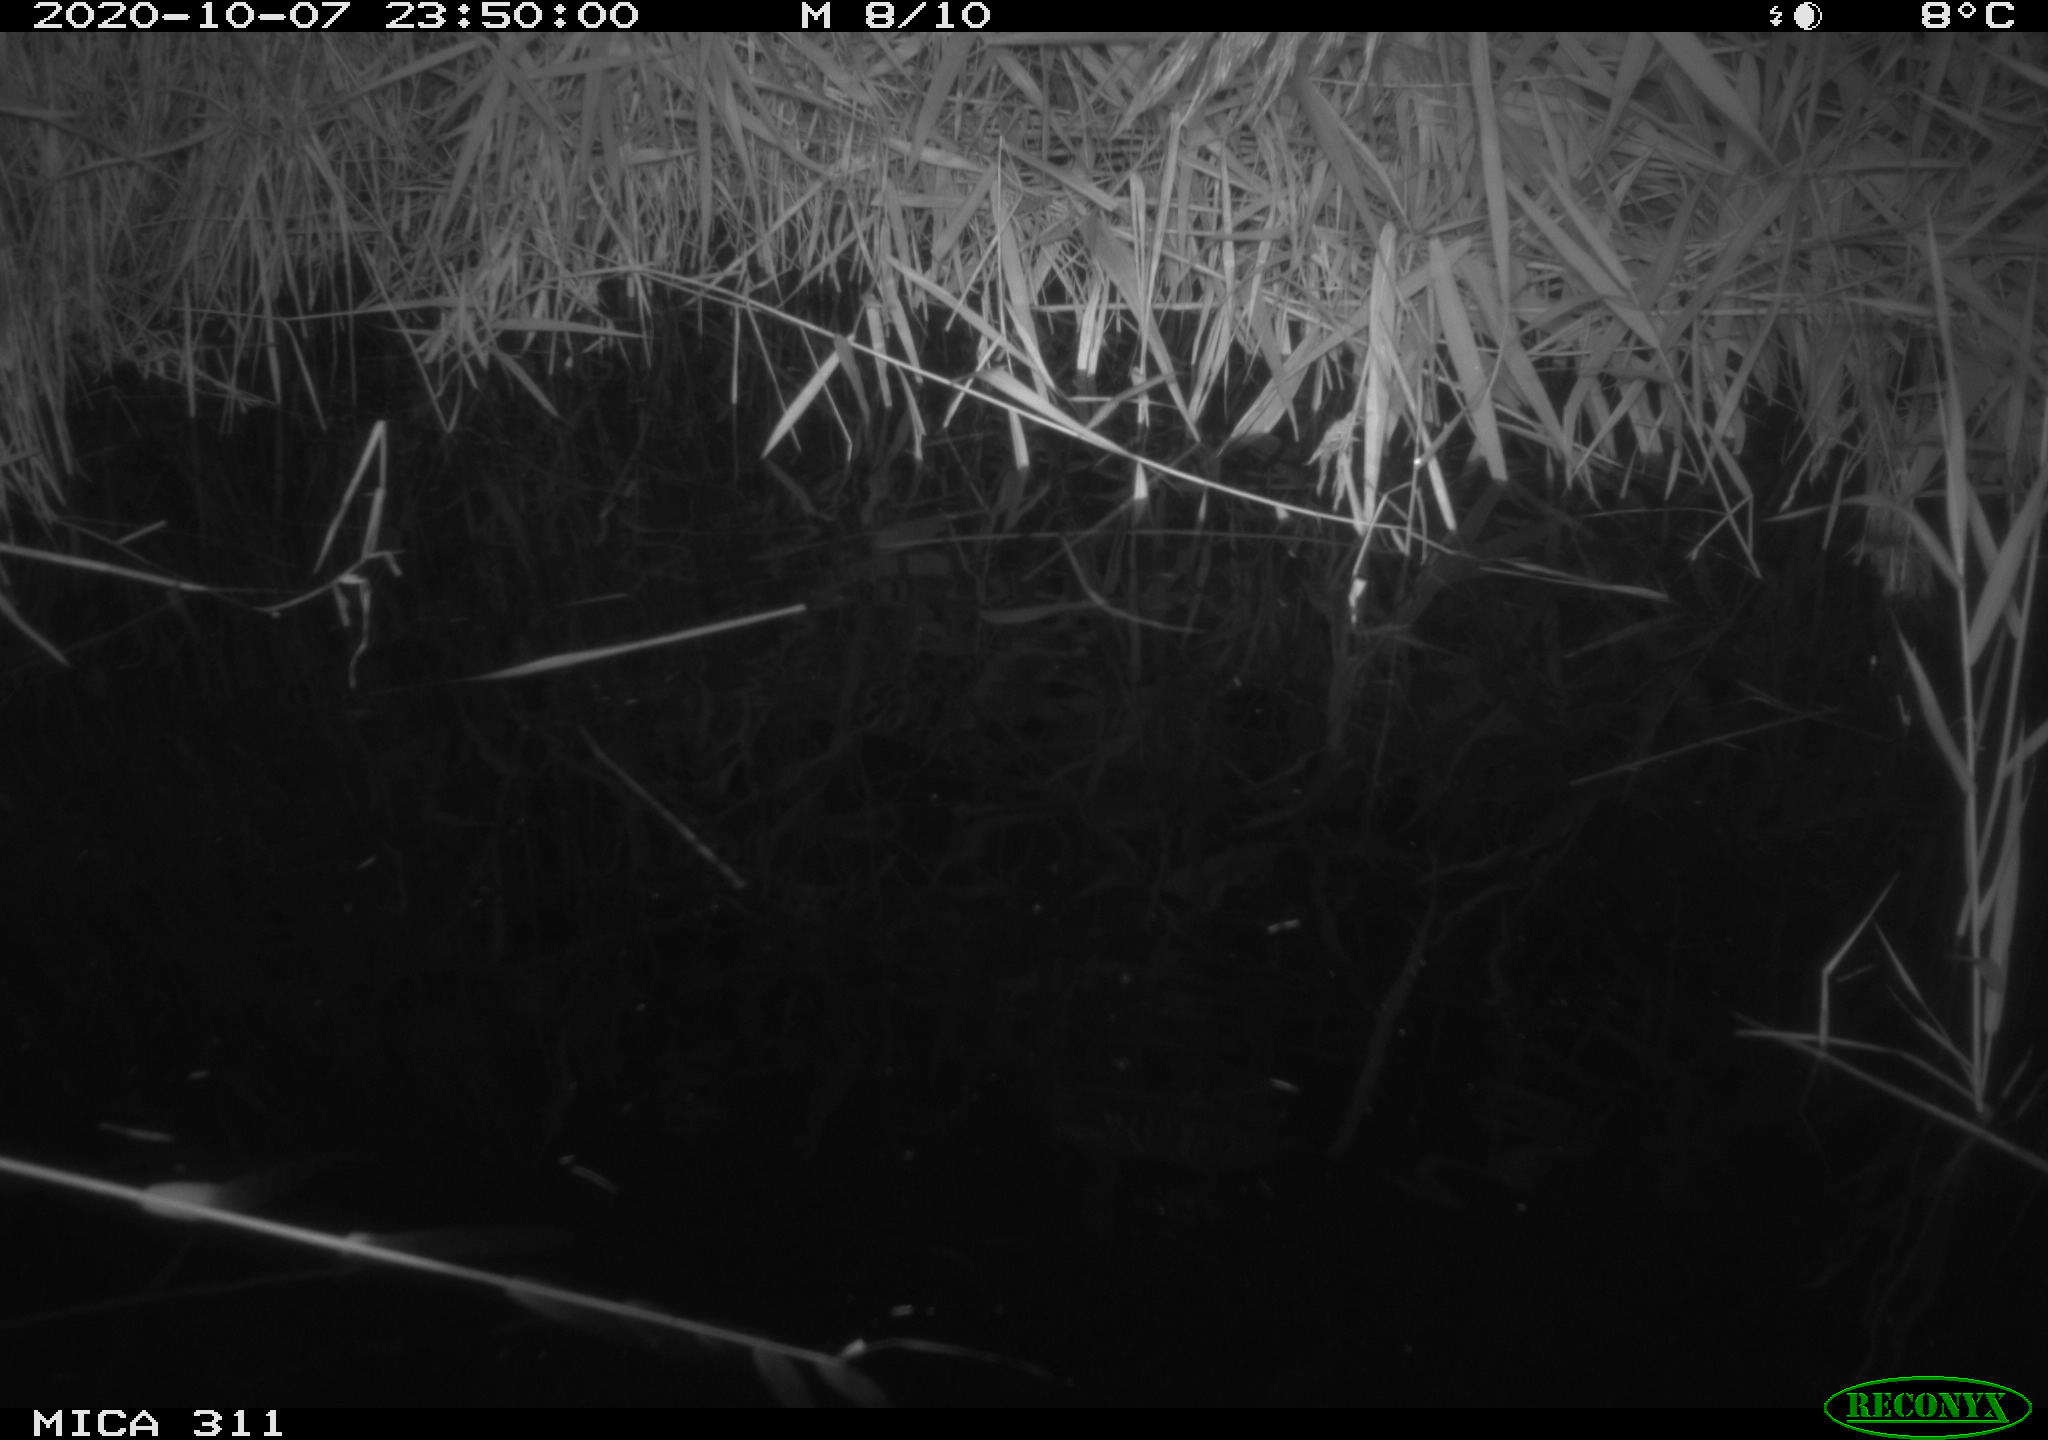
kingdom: Animalia
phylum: Chordata
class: Mammalia
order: Rodentia
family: Muridae
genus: Rattus
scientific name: Rattus norvegicus
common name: Brown rat
